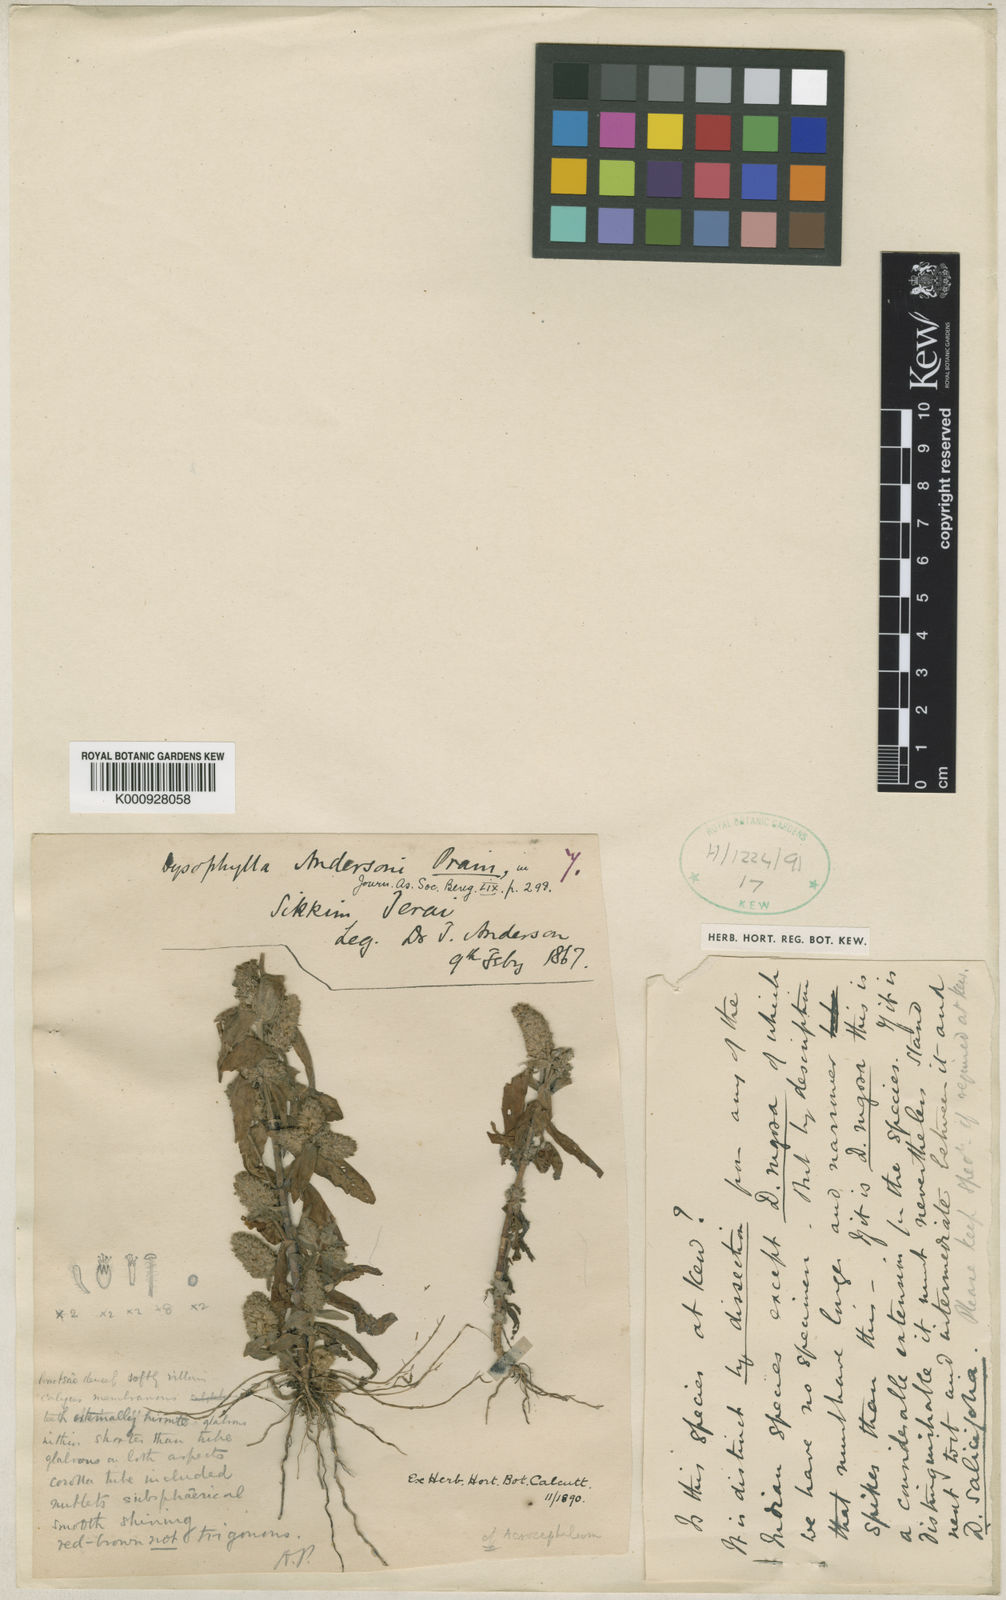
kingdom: Plantae
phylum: Tracheophyta
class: Magnoliopsida
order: Lamiales
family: Lamiaceae
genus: Pogostemon
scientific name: Pogostemon andersonii
